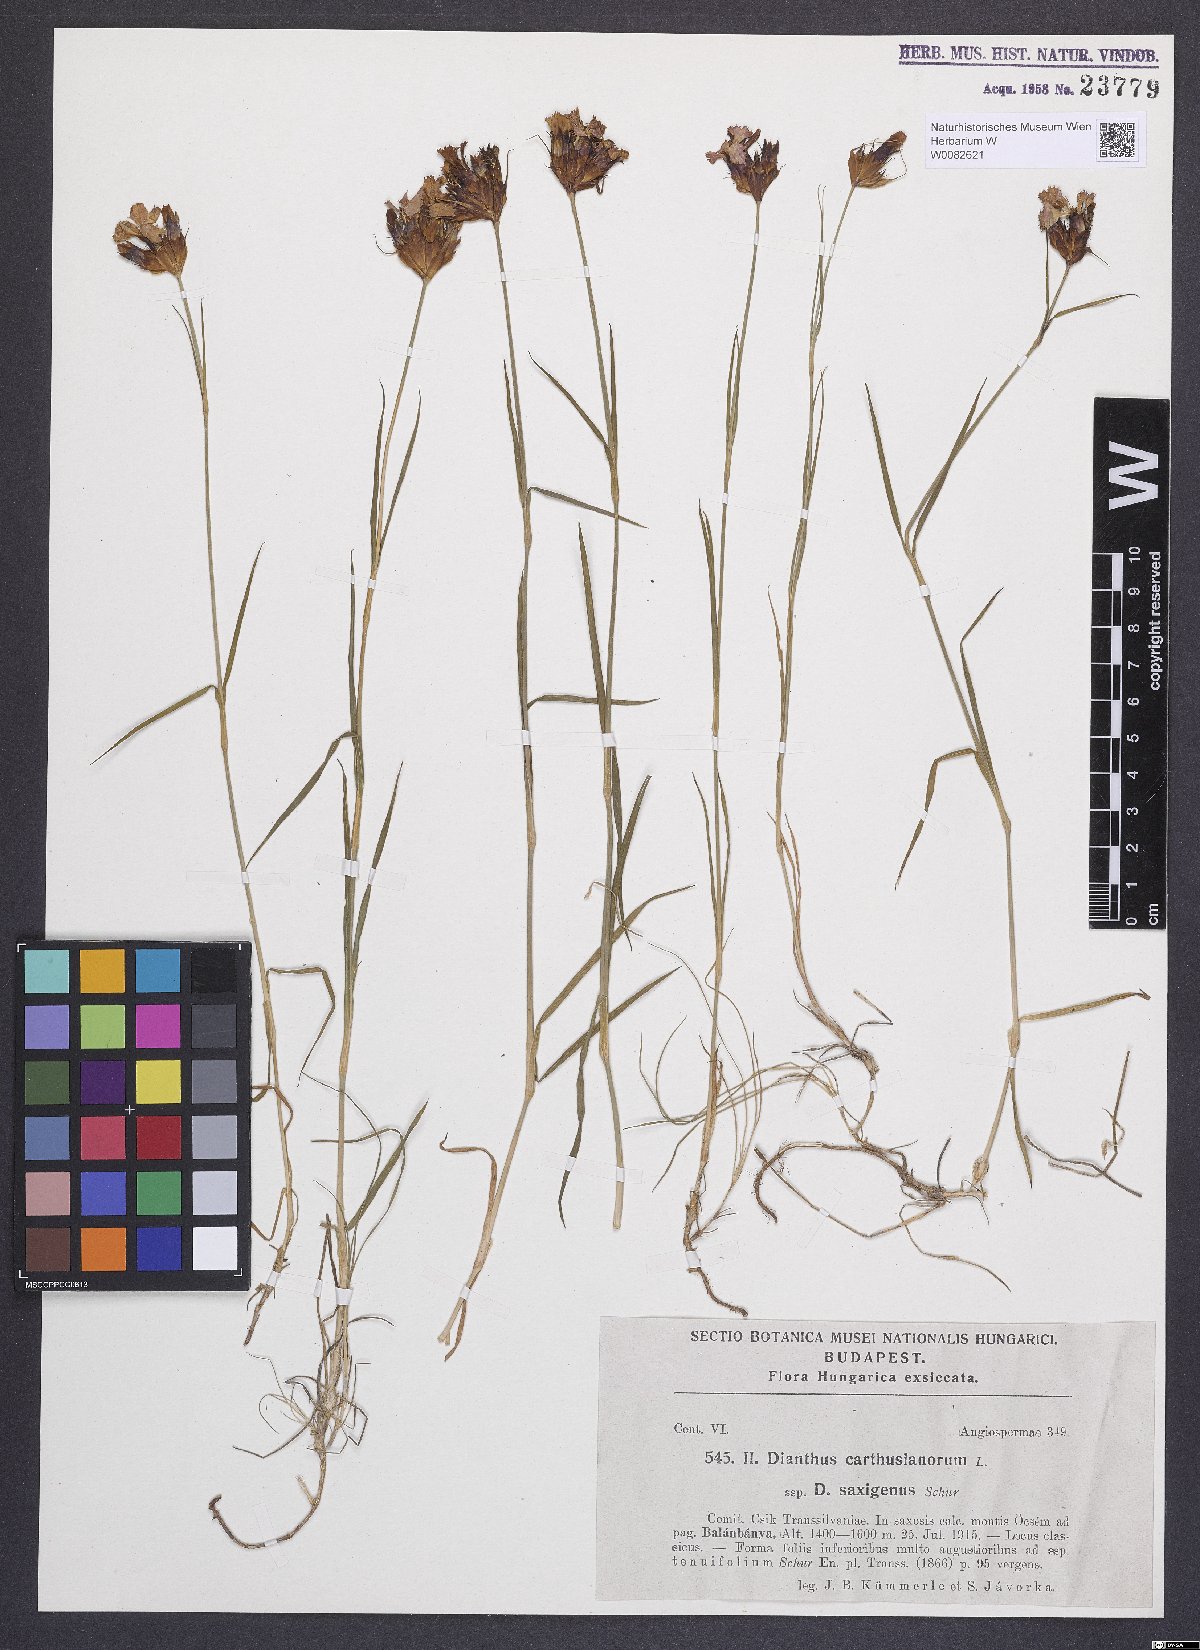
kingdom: Plantae
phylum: Tracheophyta
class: Magnoliopsida
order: Caryophyllales
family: Caryophyllaceae
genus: Dianthus
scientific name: Dianthus carthusianorum
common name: Carthusian pink
